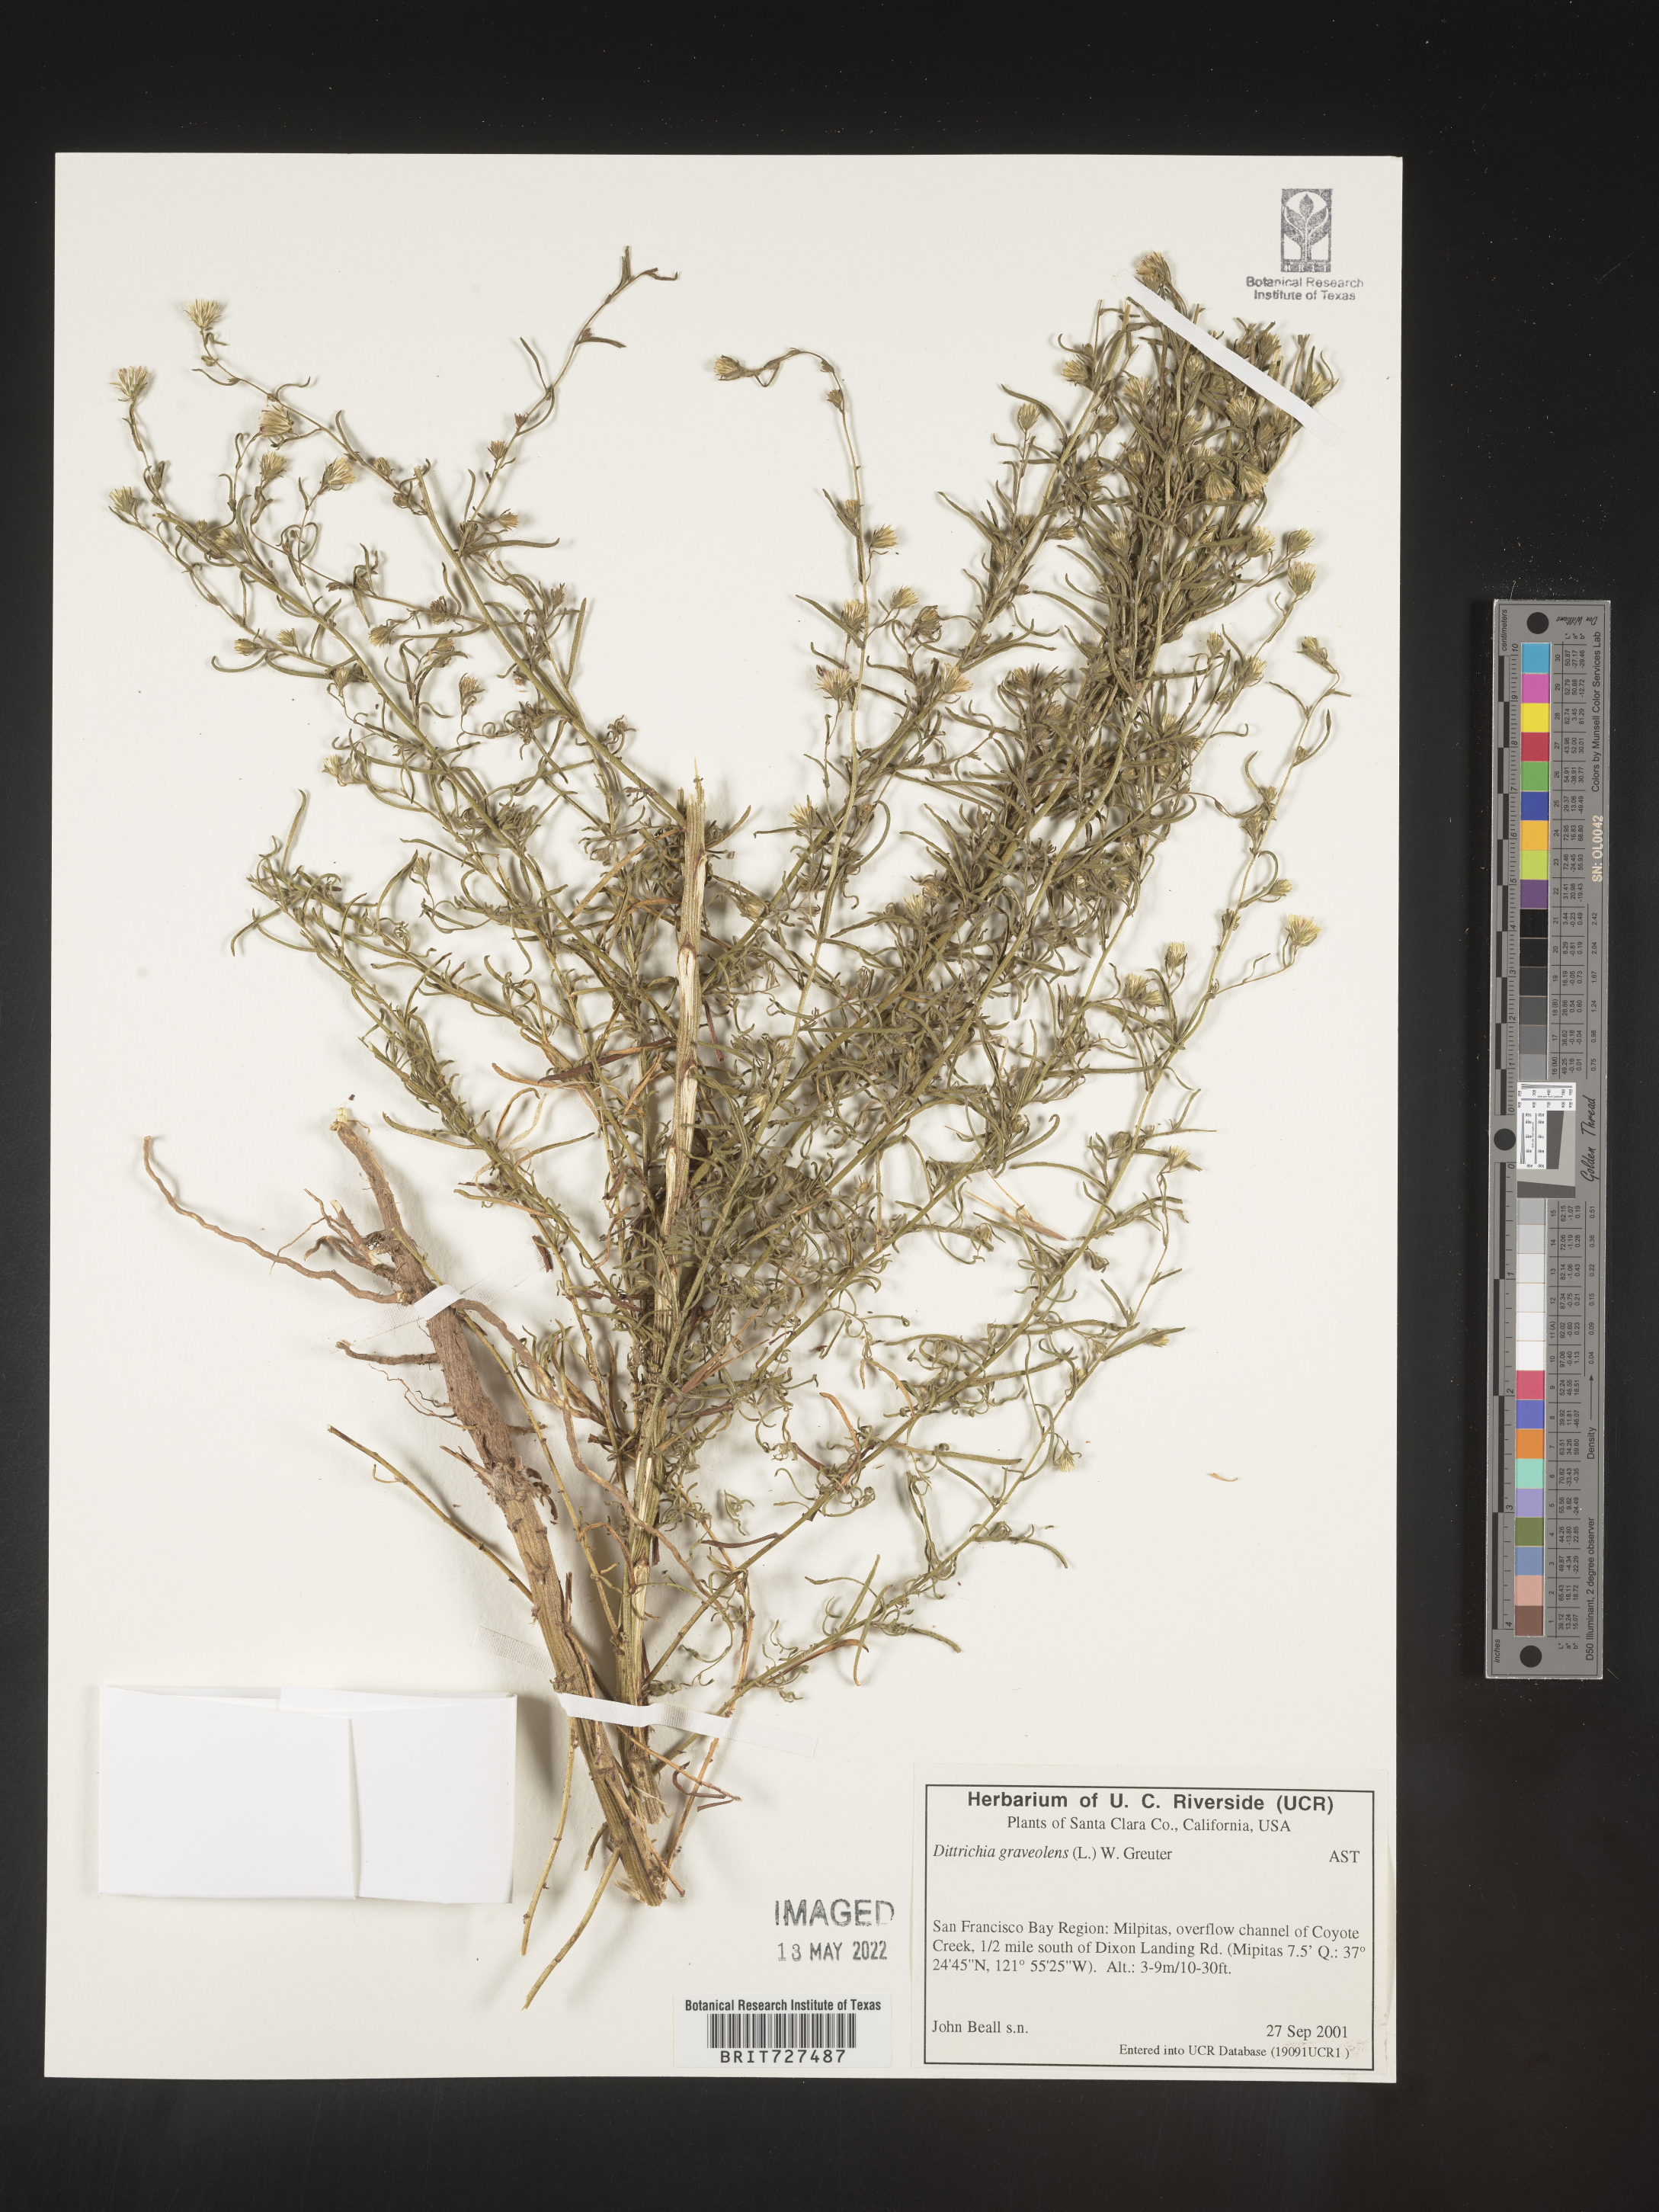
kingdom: Plantae
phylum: Tracheophyta
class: Magnoliopsida
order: Asterales
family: Asteraceae
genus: Dittrichia
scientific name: Dittrichia
